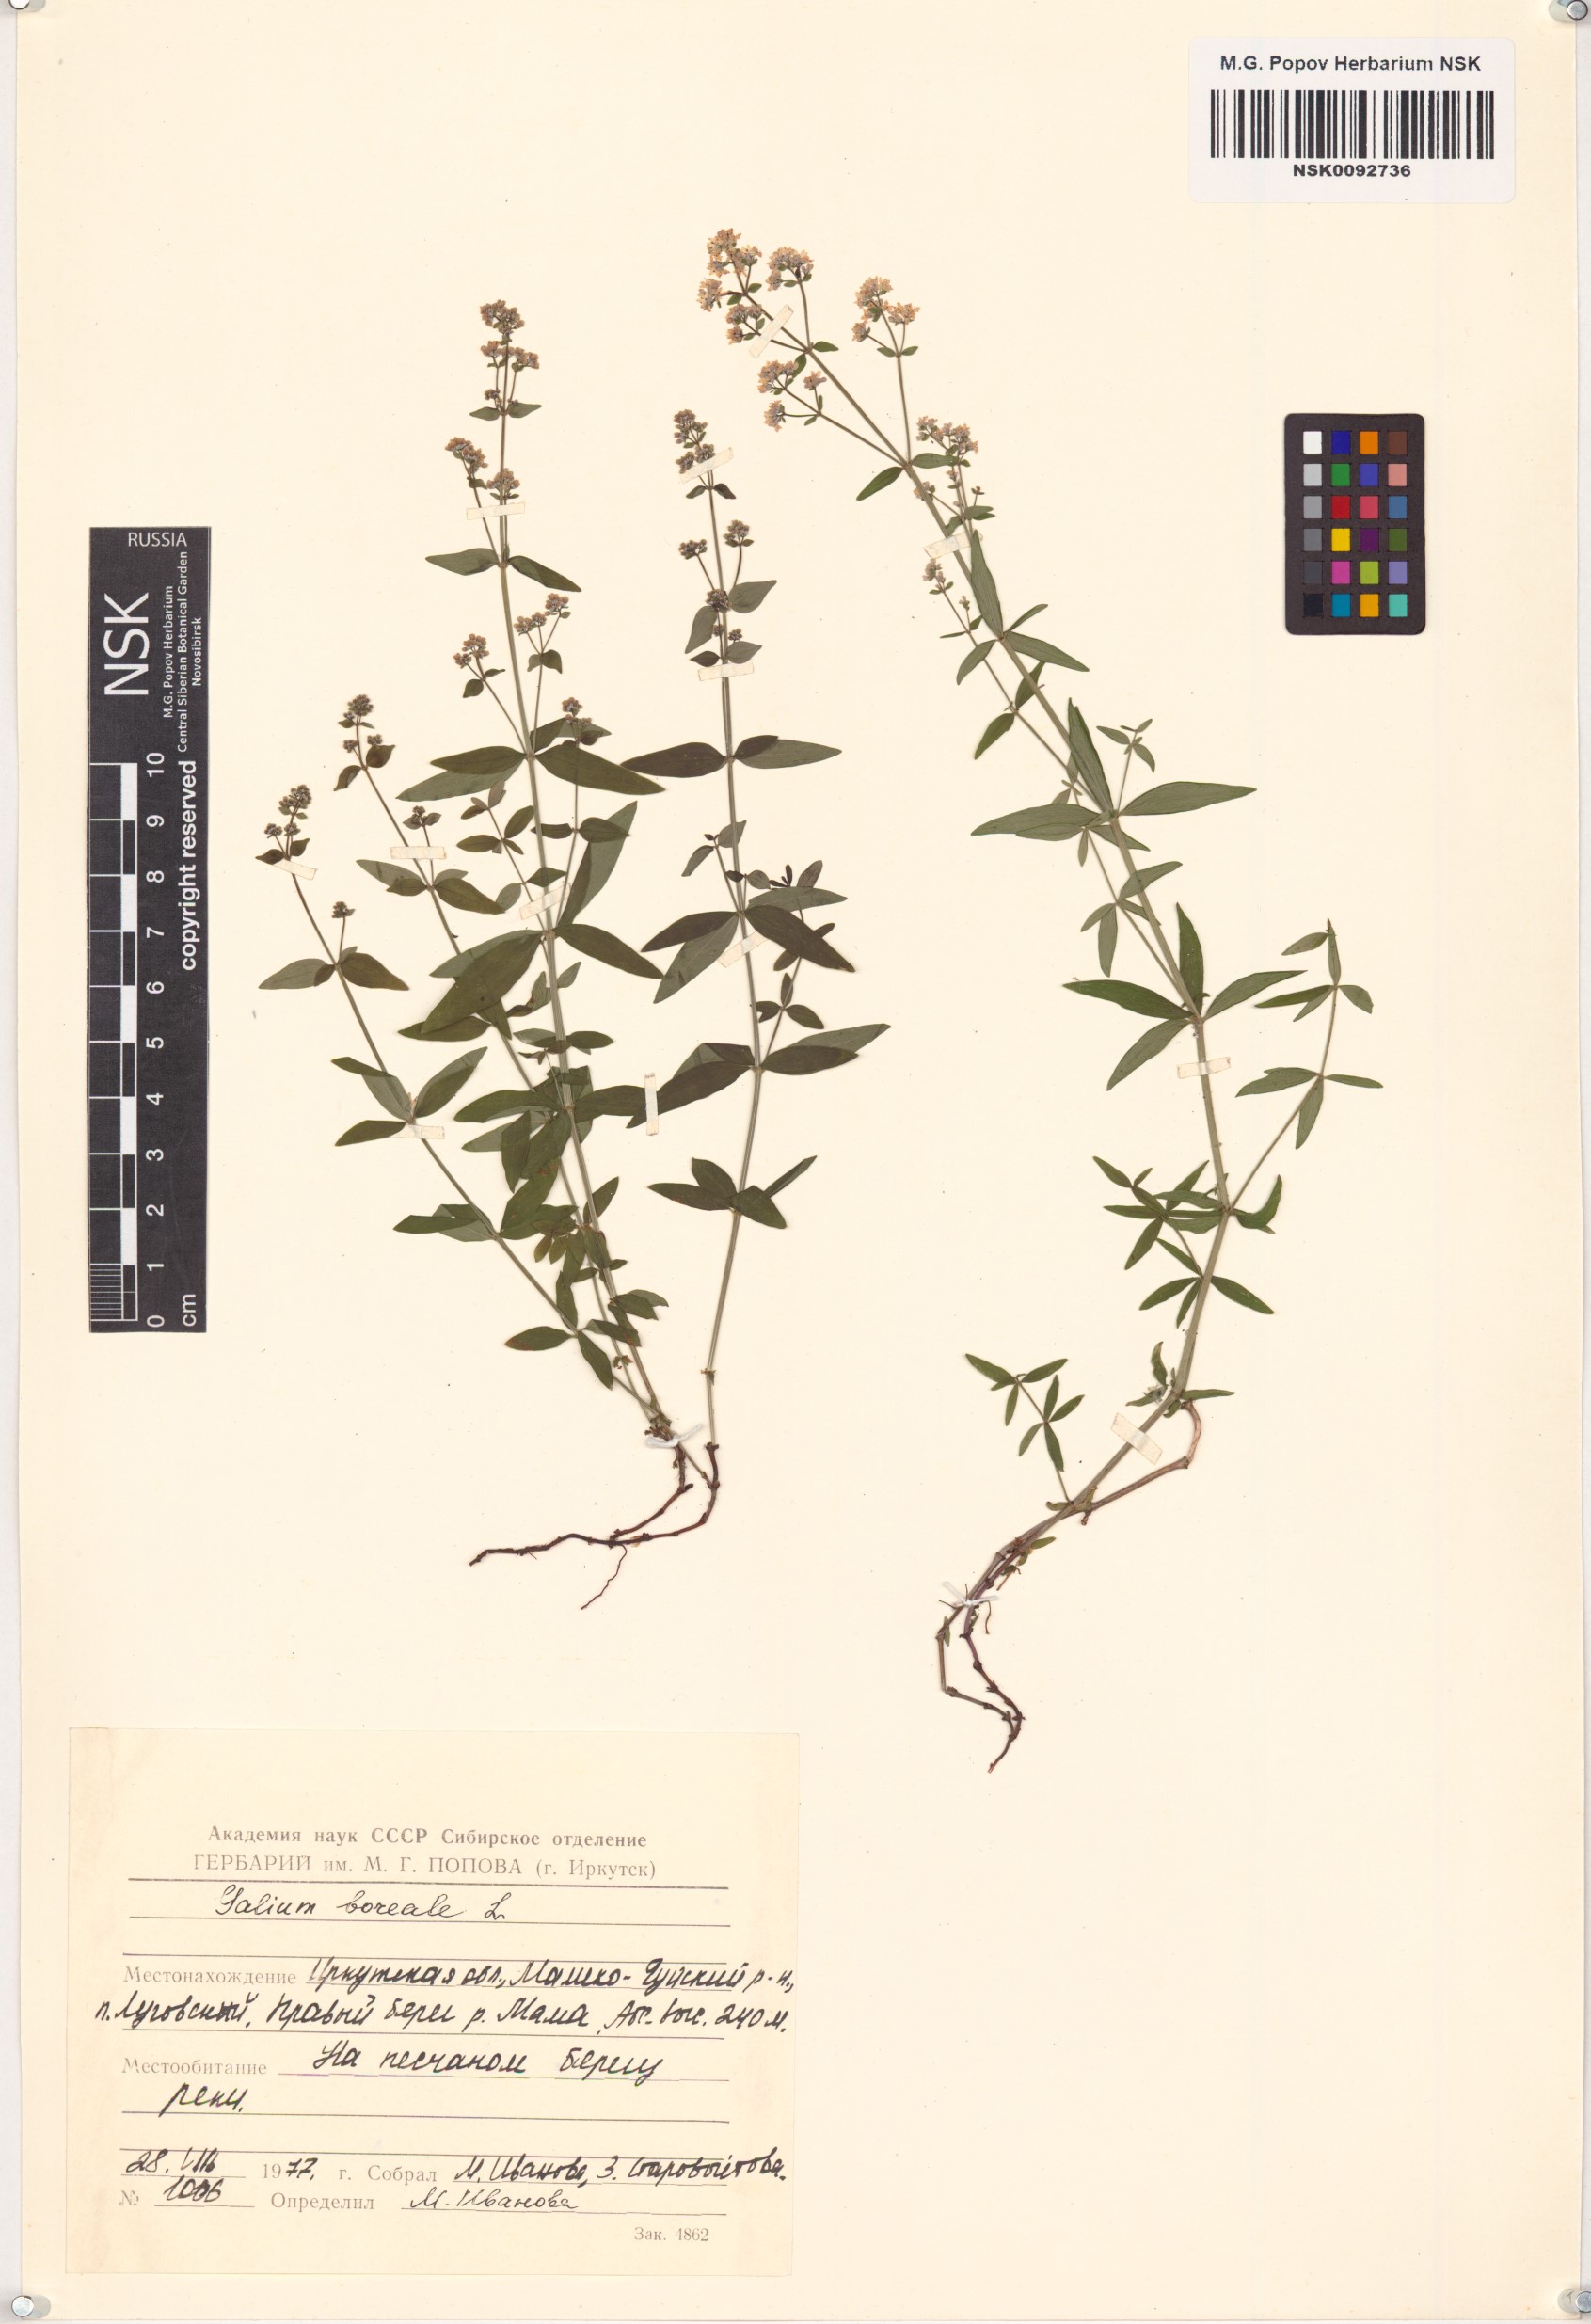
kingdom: Plantae
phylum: Tracheophyta
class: Magnoliopsida
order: Gentianales
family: Rubiaceae
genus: Galium
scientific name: Galium boreale
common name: Northern bedstraw
